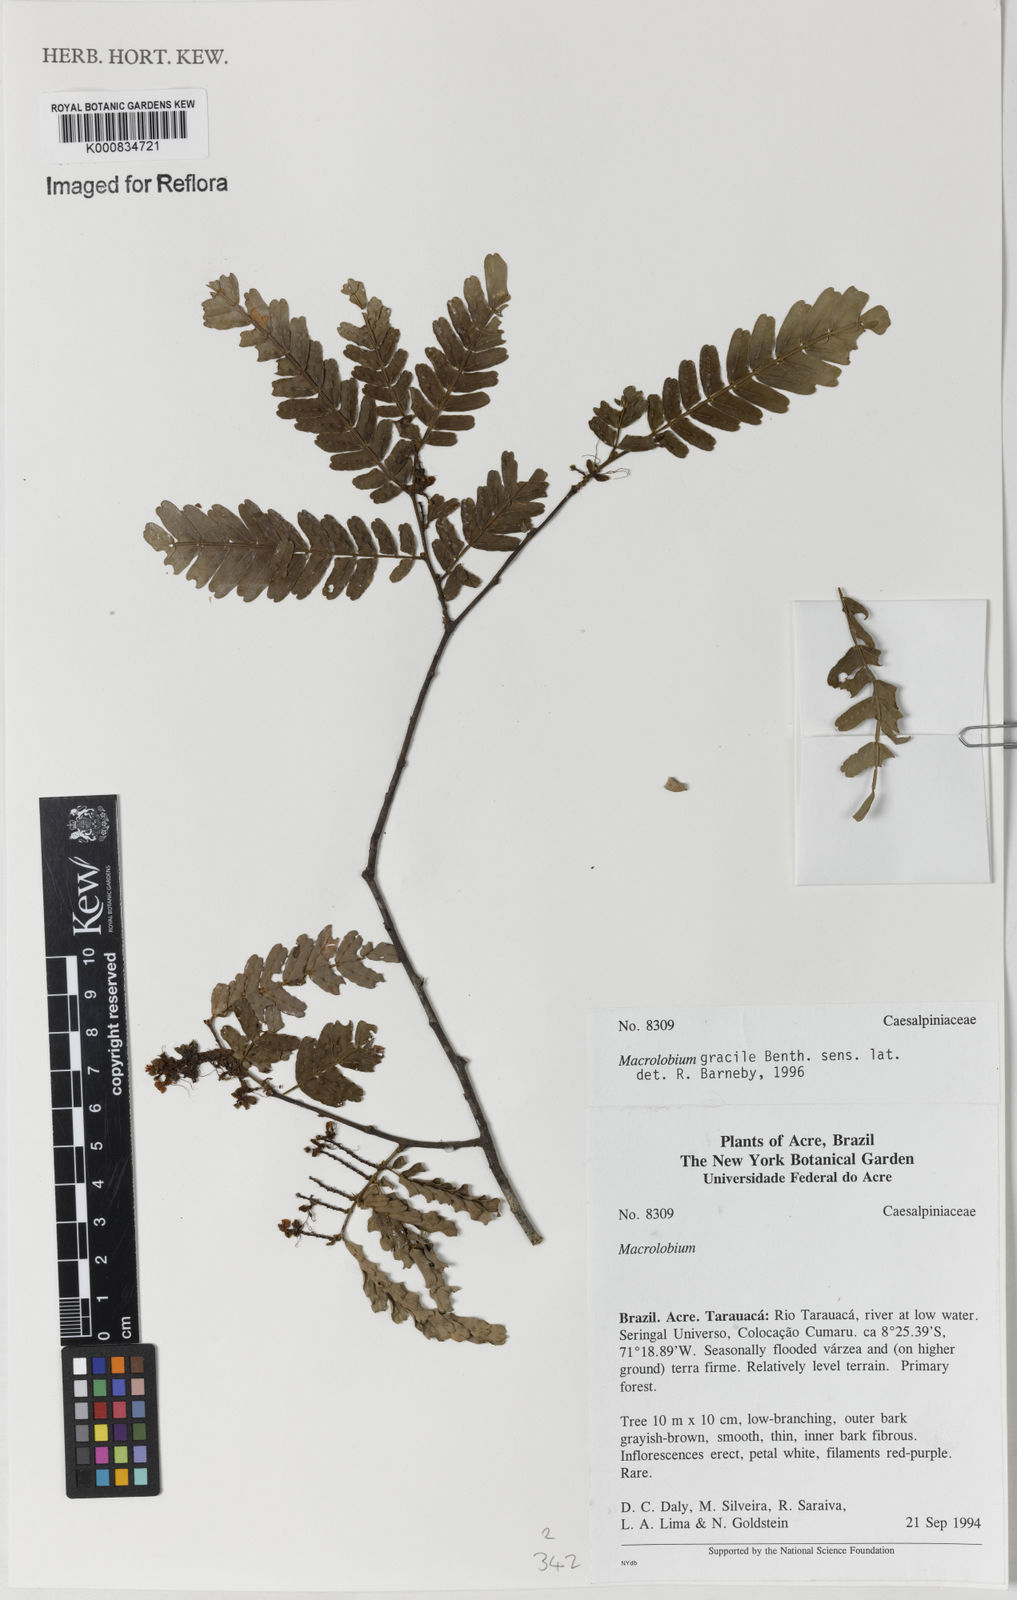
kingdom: Plantae
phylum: Tracheophyta
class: Magnoliopsida
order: Fabales
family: Fabaceae
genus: Macrolobium
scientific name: Macrolobium
